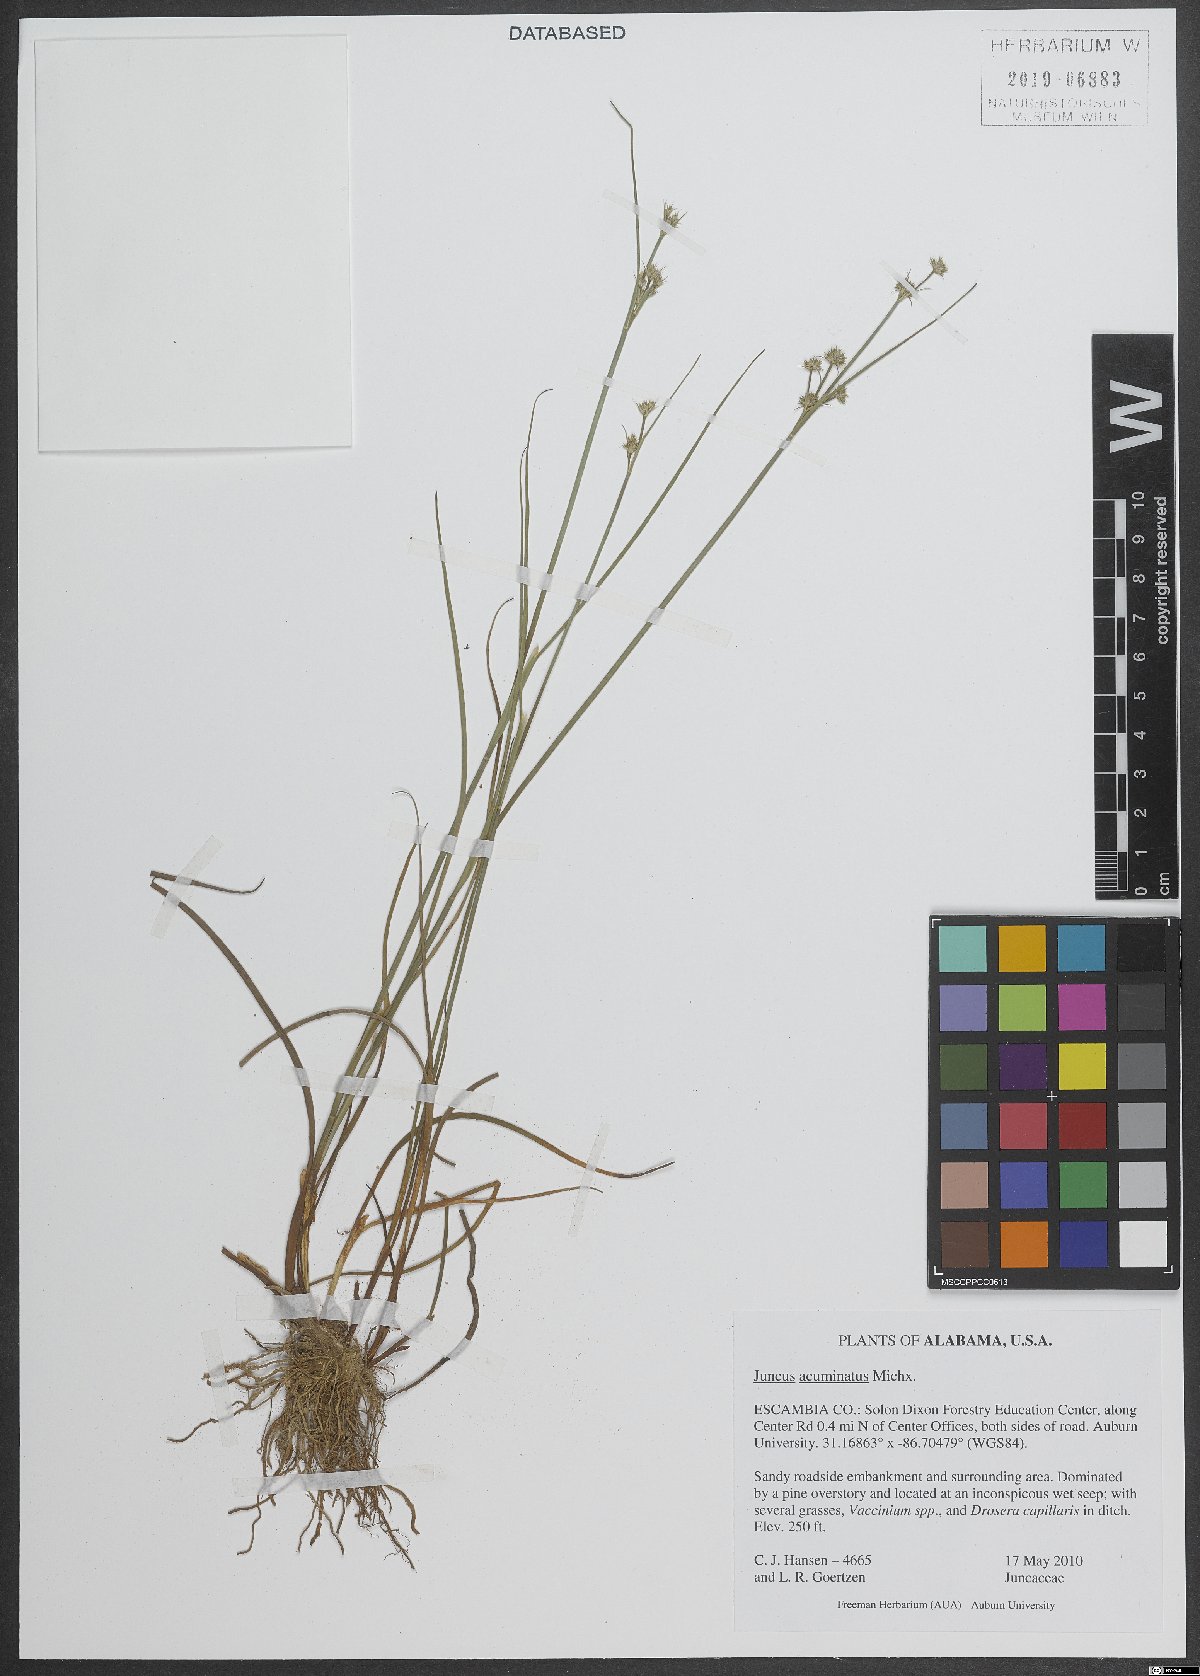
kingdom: Plantae
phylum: Tracheophyta
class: Liliopsida
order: Poales
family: Juncaceae
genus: Juncus
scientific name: Juncus acuminatus
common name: Knotty-leaved rush
